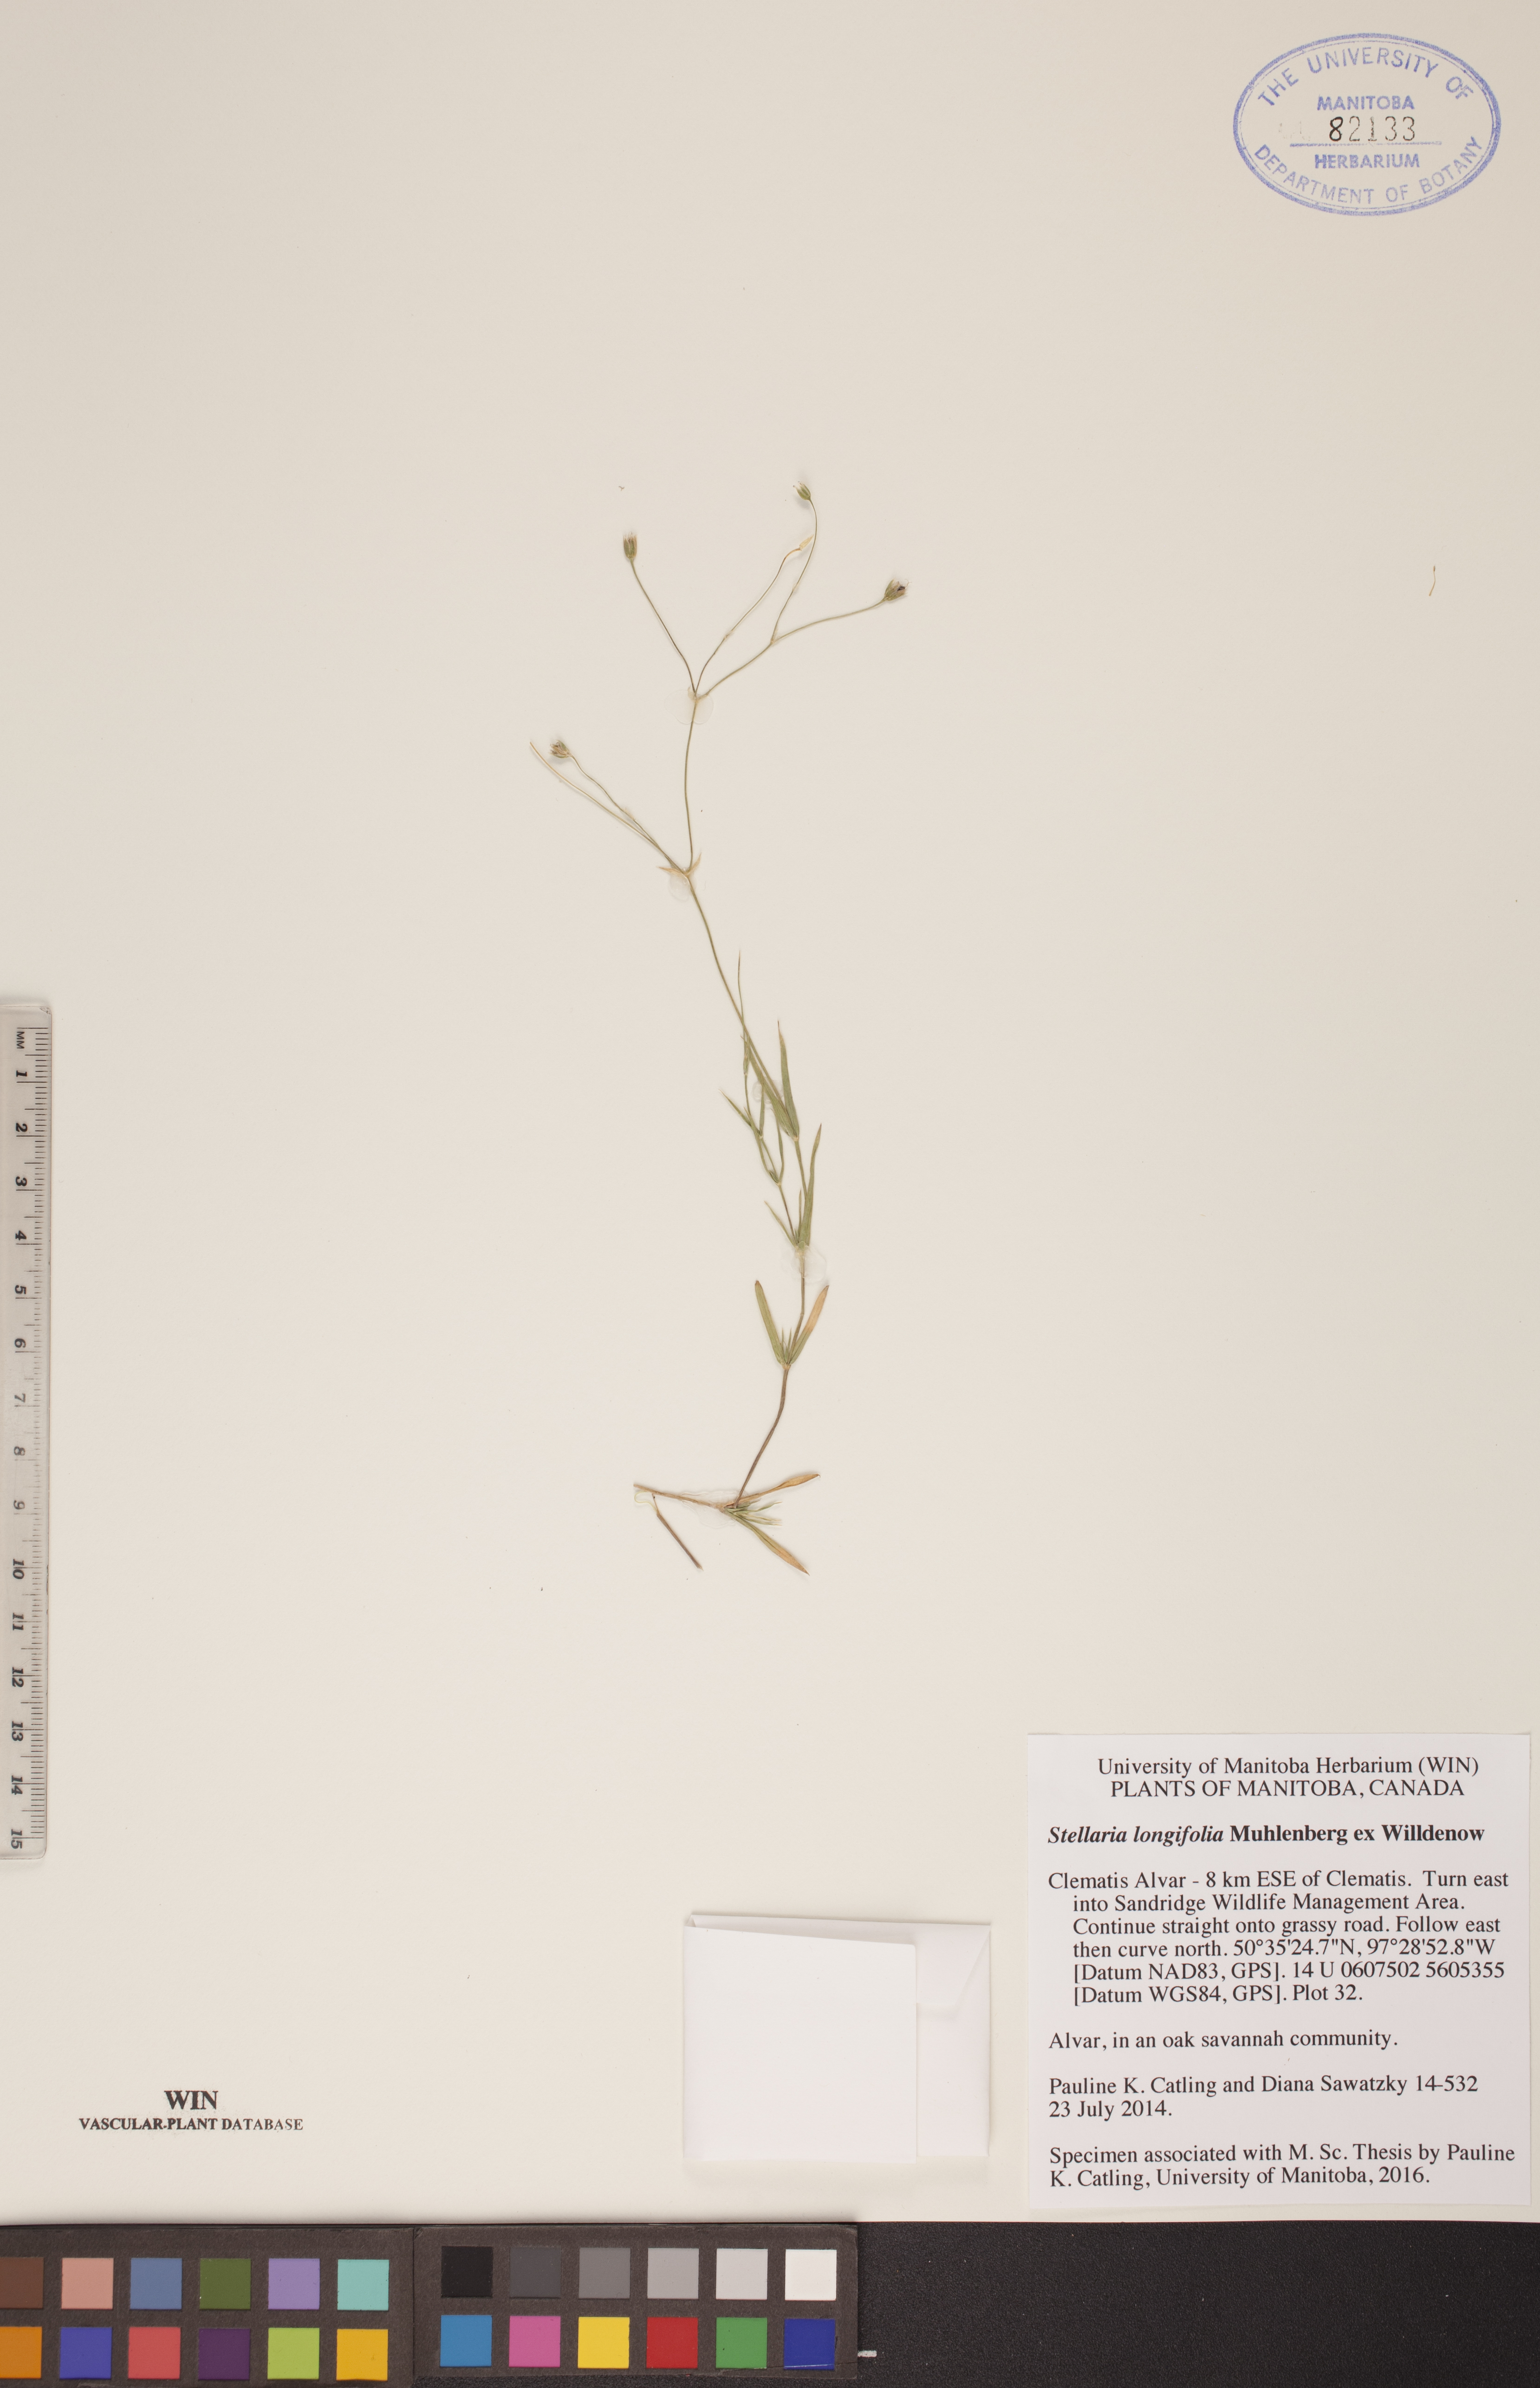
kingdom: Plantae
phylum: Tracheophyta
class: Magnoliopsida
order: Caryophyllales
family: Caryophyllaceae
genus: Stellaria
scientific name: Stellaria longifolia
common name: Long-leaved chickweed
